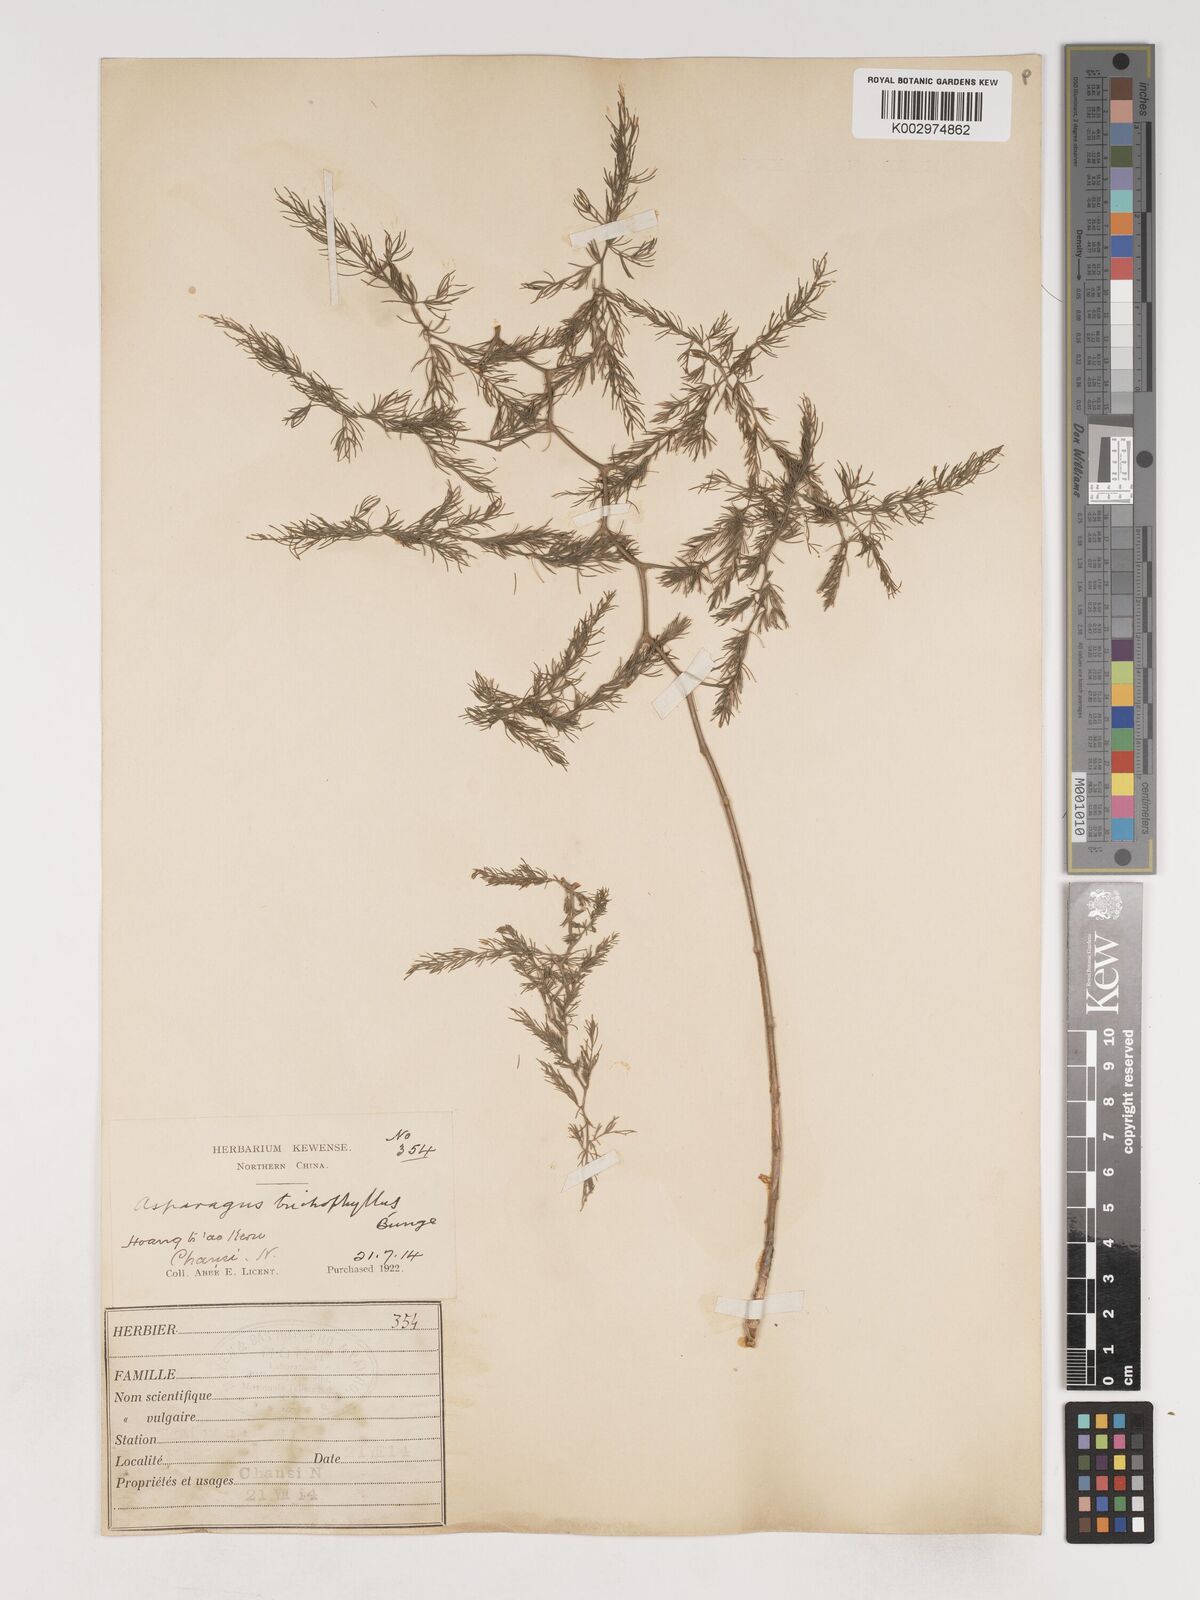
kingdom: Plantae
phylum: Tracheophyta
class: Liliopsida
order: Asparagales
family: Asparagaceae
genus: Asparagus
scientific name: Asparagus trichophyllus
